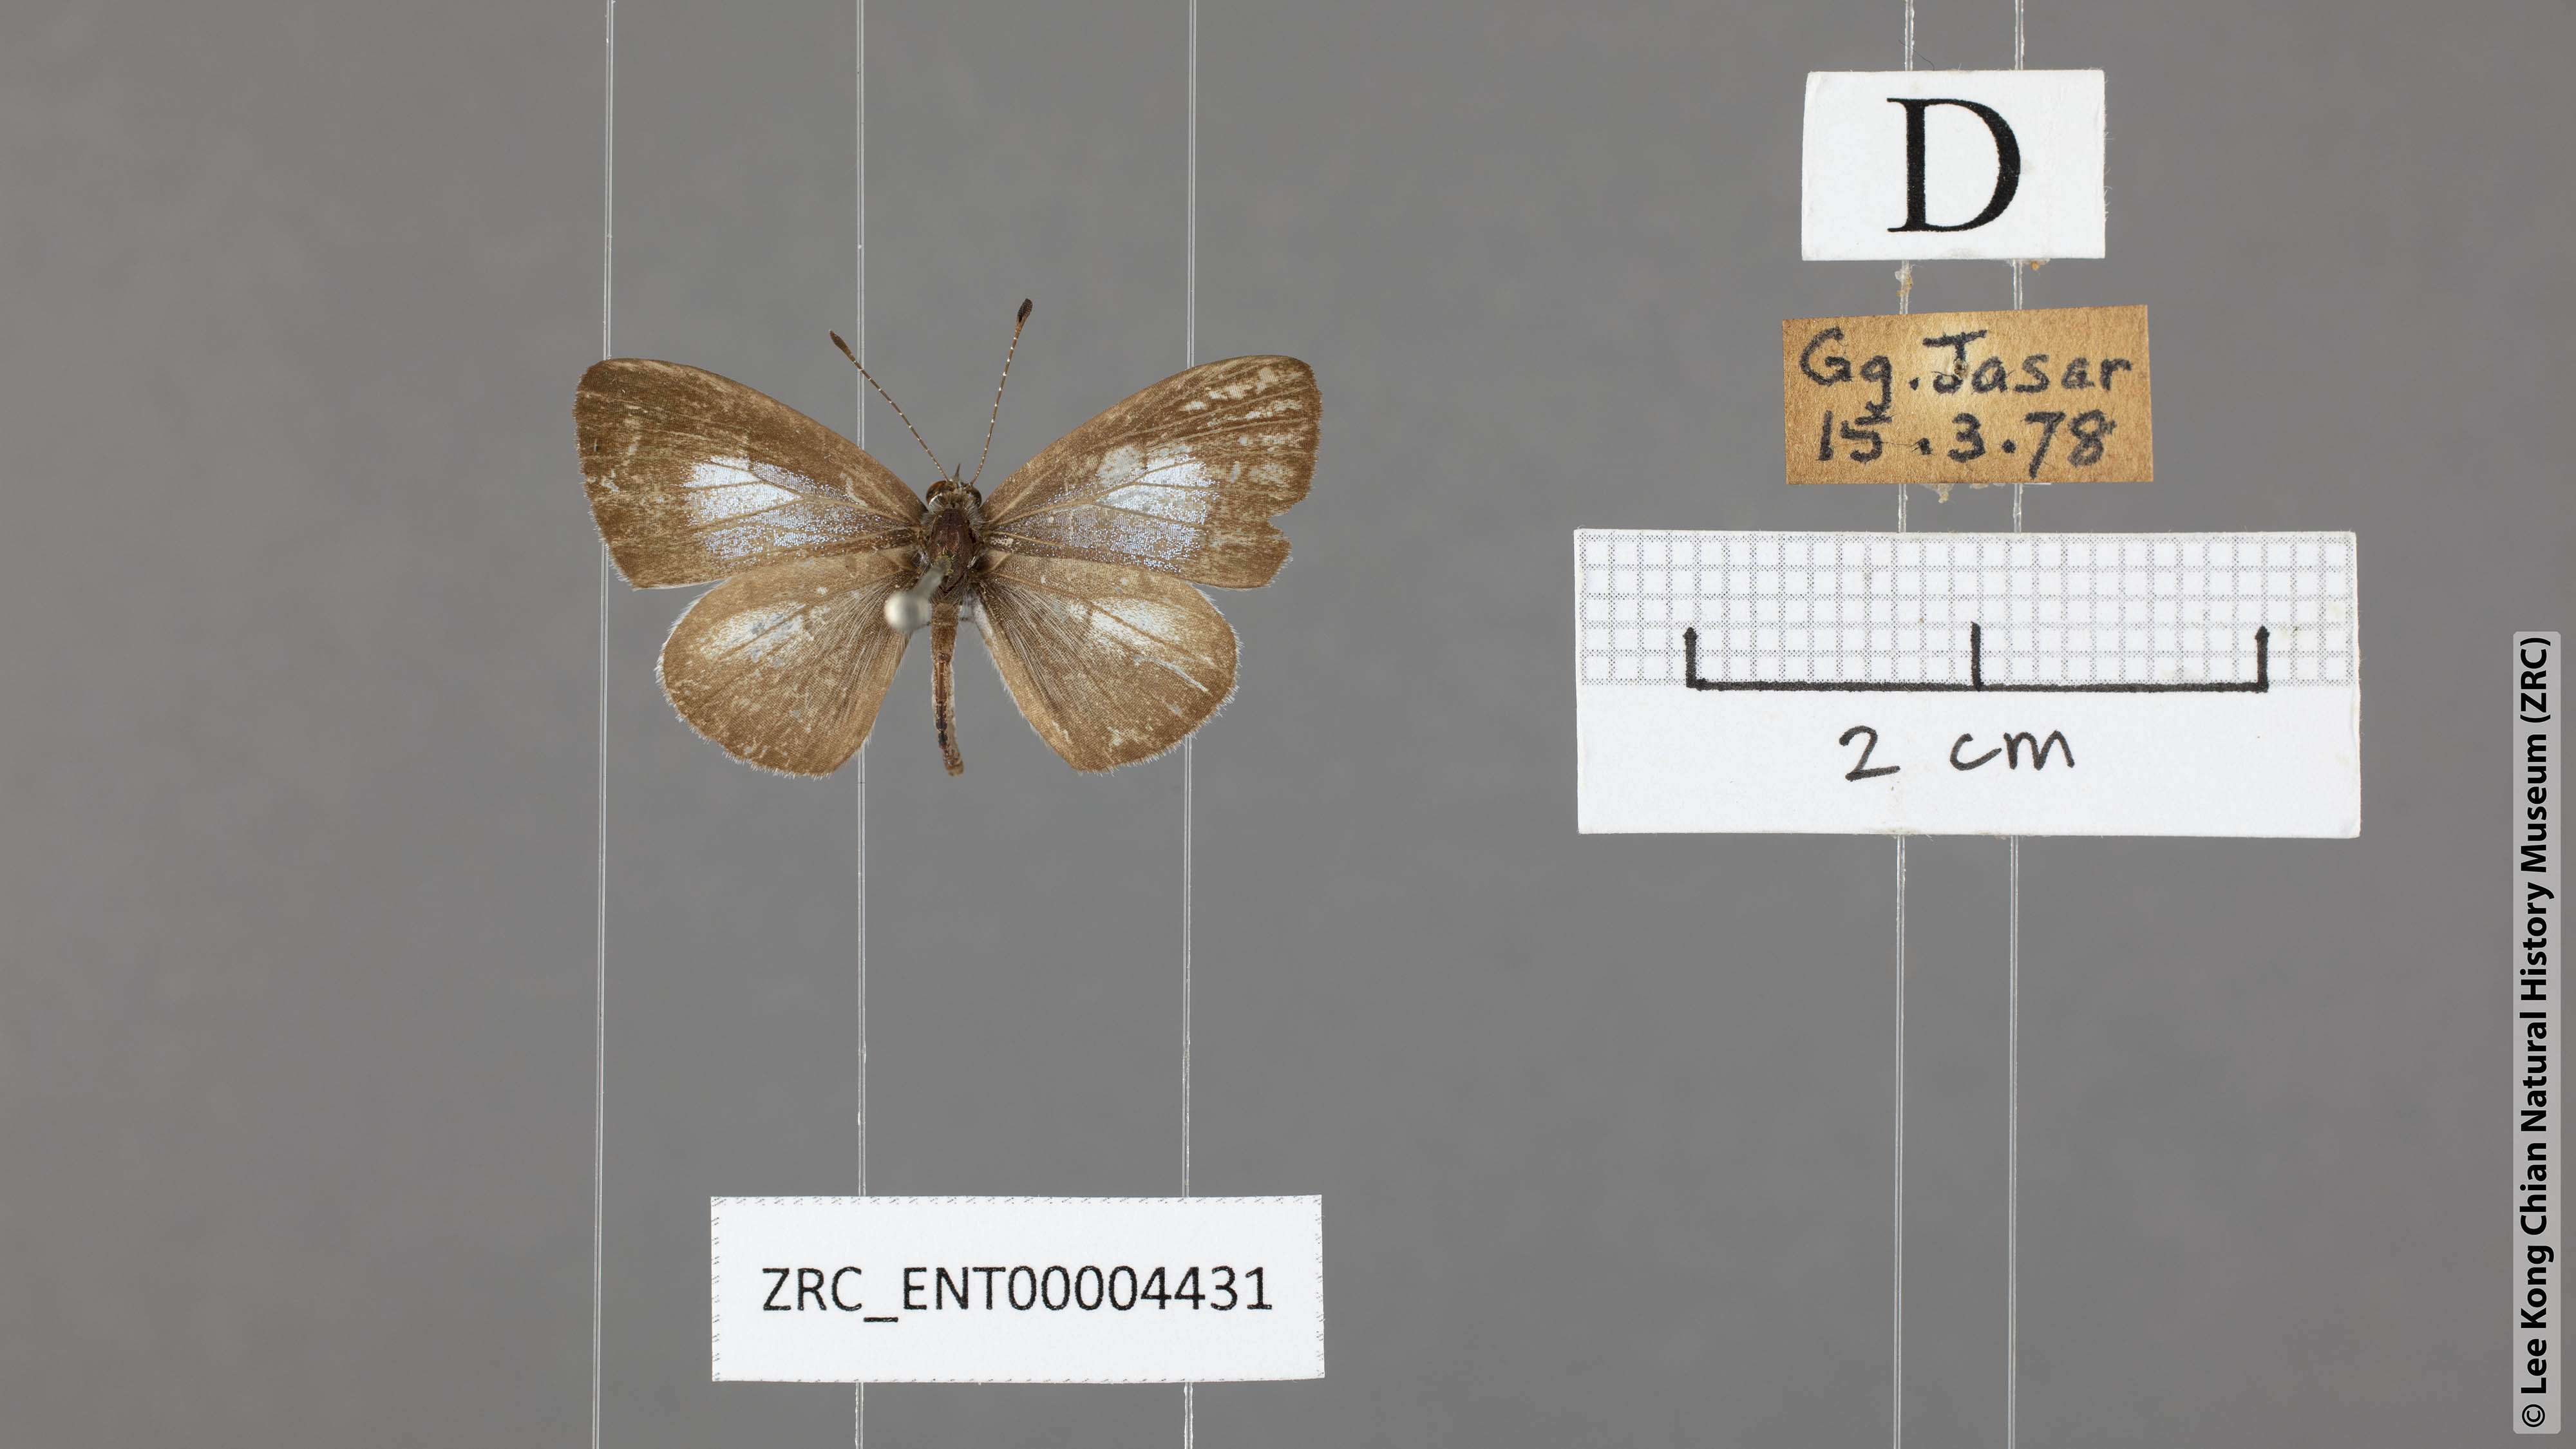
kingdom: Animalia
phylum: Arthropoda
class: Insecta
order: Lepidoptera
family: Lycaenidae
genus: Oreolyce
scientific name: Oreolyce
